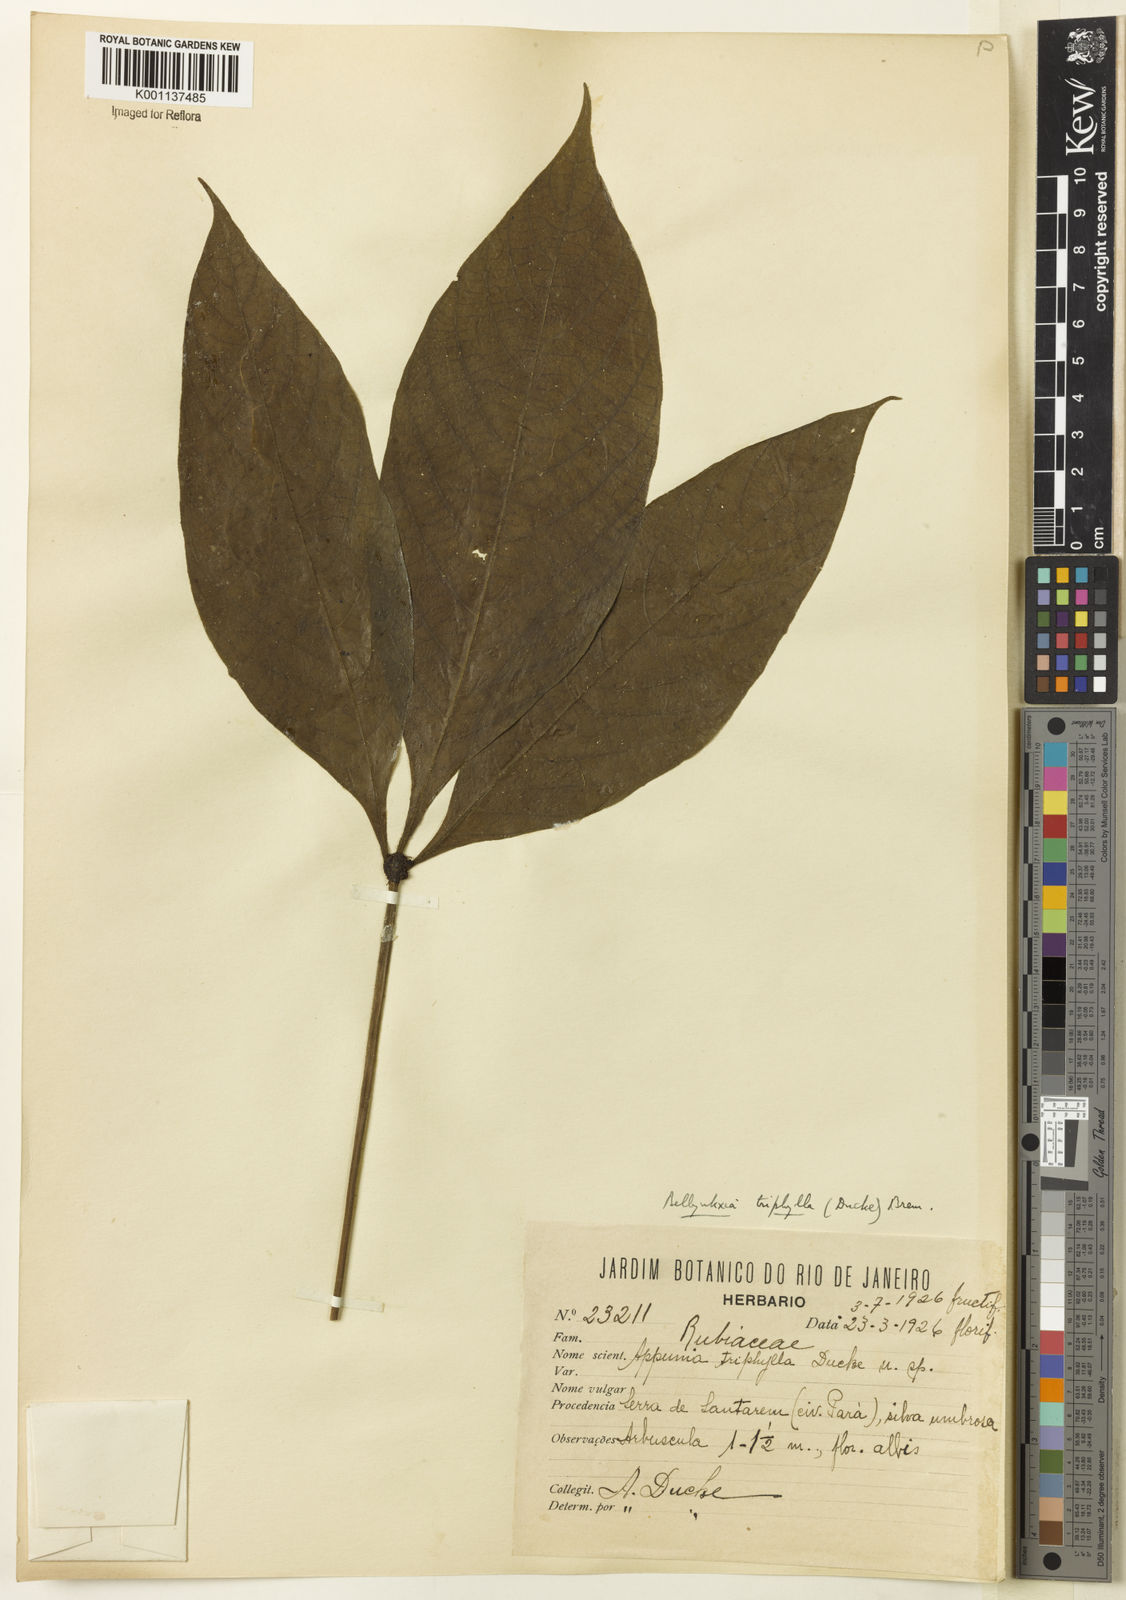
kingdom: Plantae
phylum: Tracheophyta
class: Magnoliopsida
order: Gentianales
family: Rubiaceae
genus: Appunia
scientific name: Appunia triphylla
